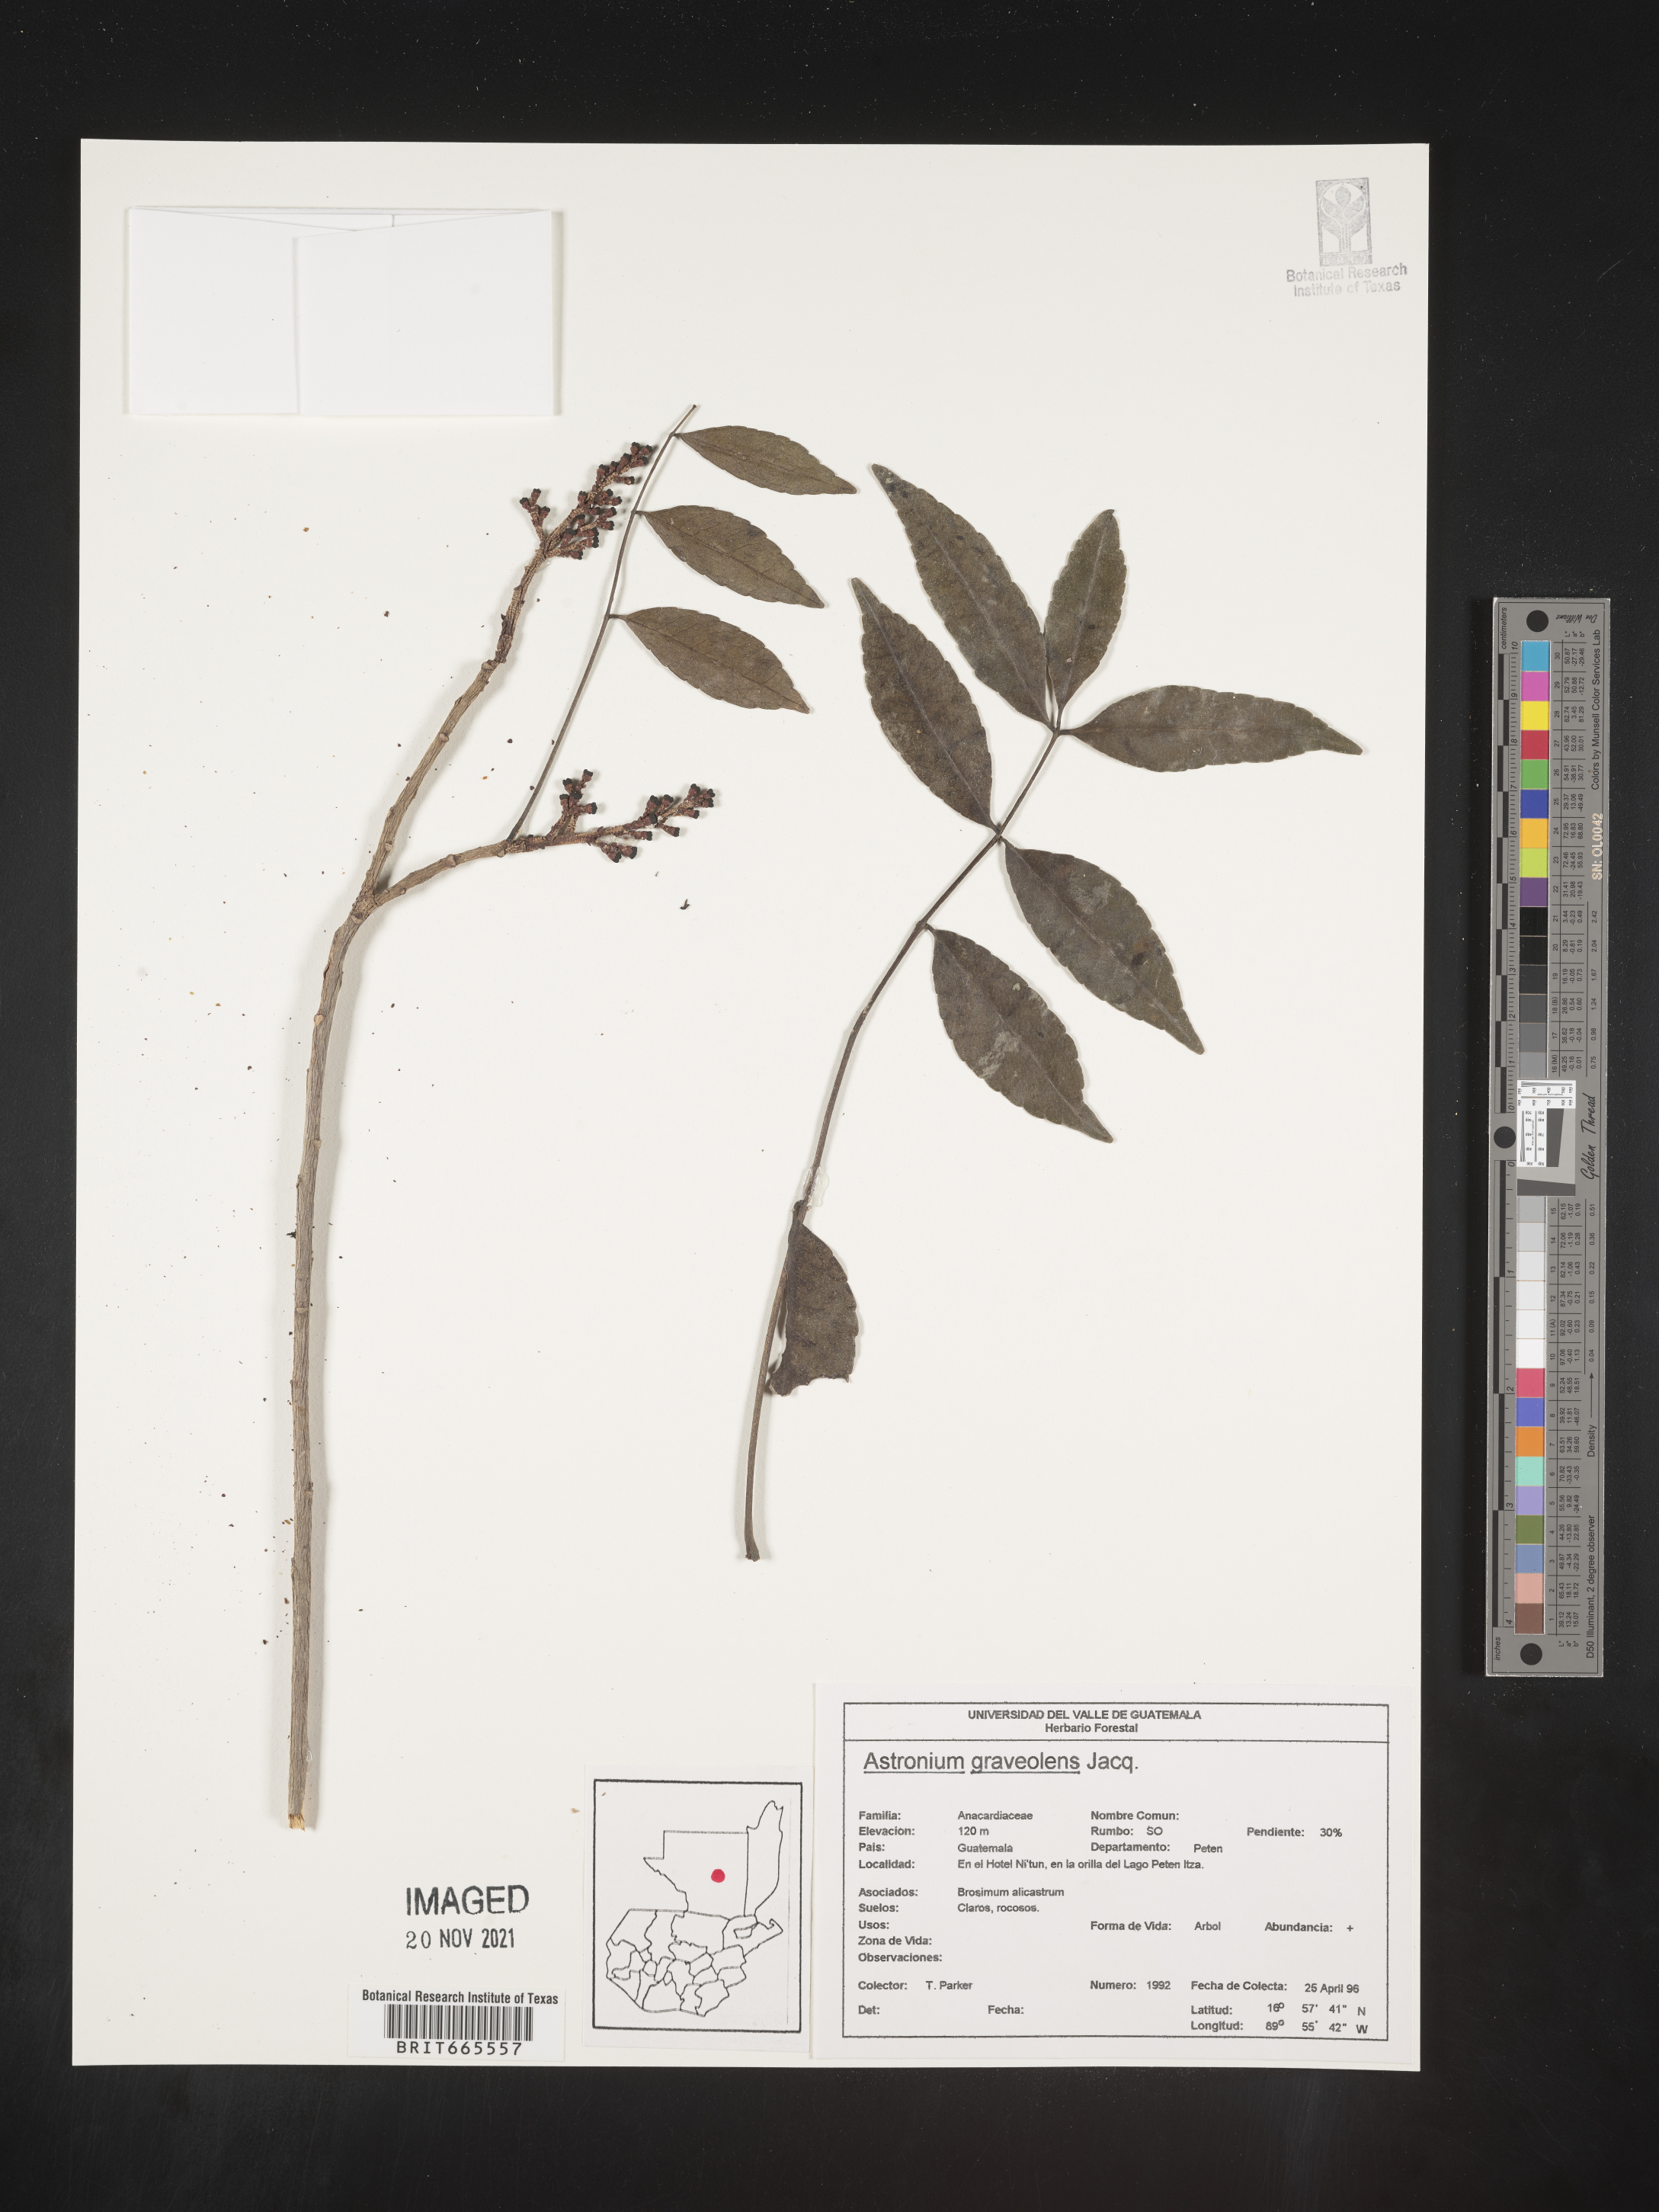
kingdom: Plantae
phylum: Tracheophyta
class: Magnoliopsida
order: Sapindales
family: Anacardiaceae
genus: Astronium
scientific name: Astronium
